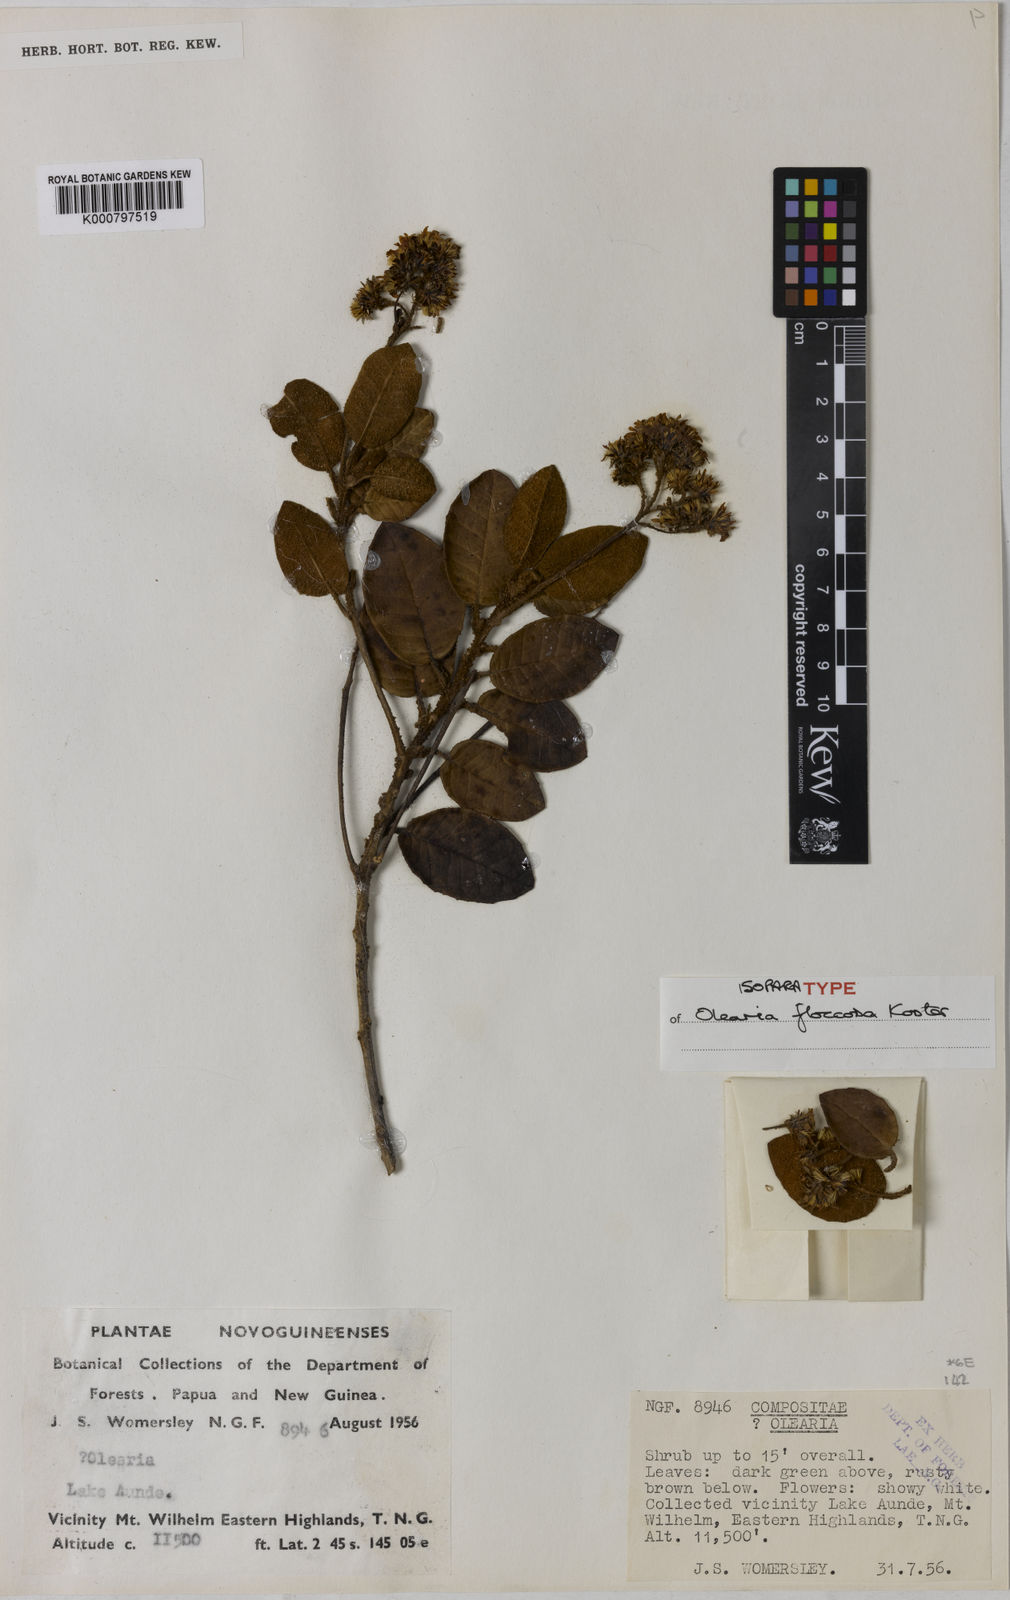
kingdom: Plantae
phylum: Tracheophyta
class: Magnoliopsida
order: Asterales
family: Asteraceae
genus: Olearia
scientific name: Olearia floccosa
